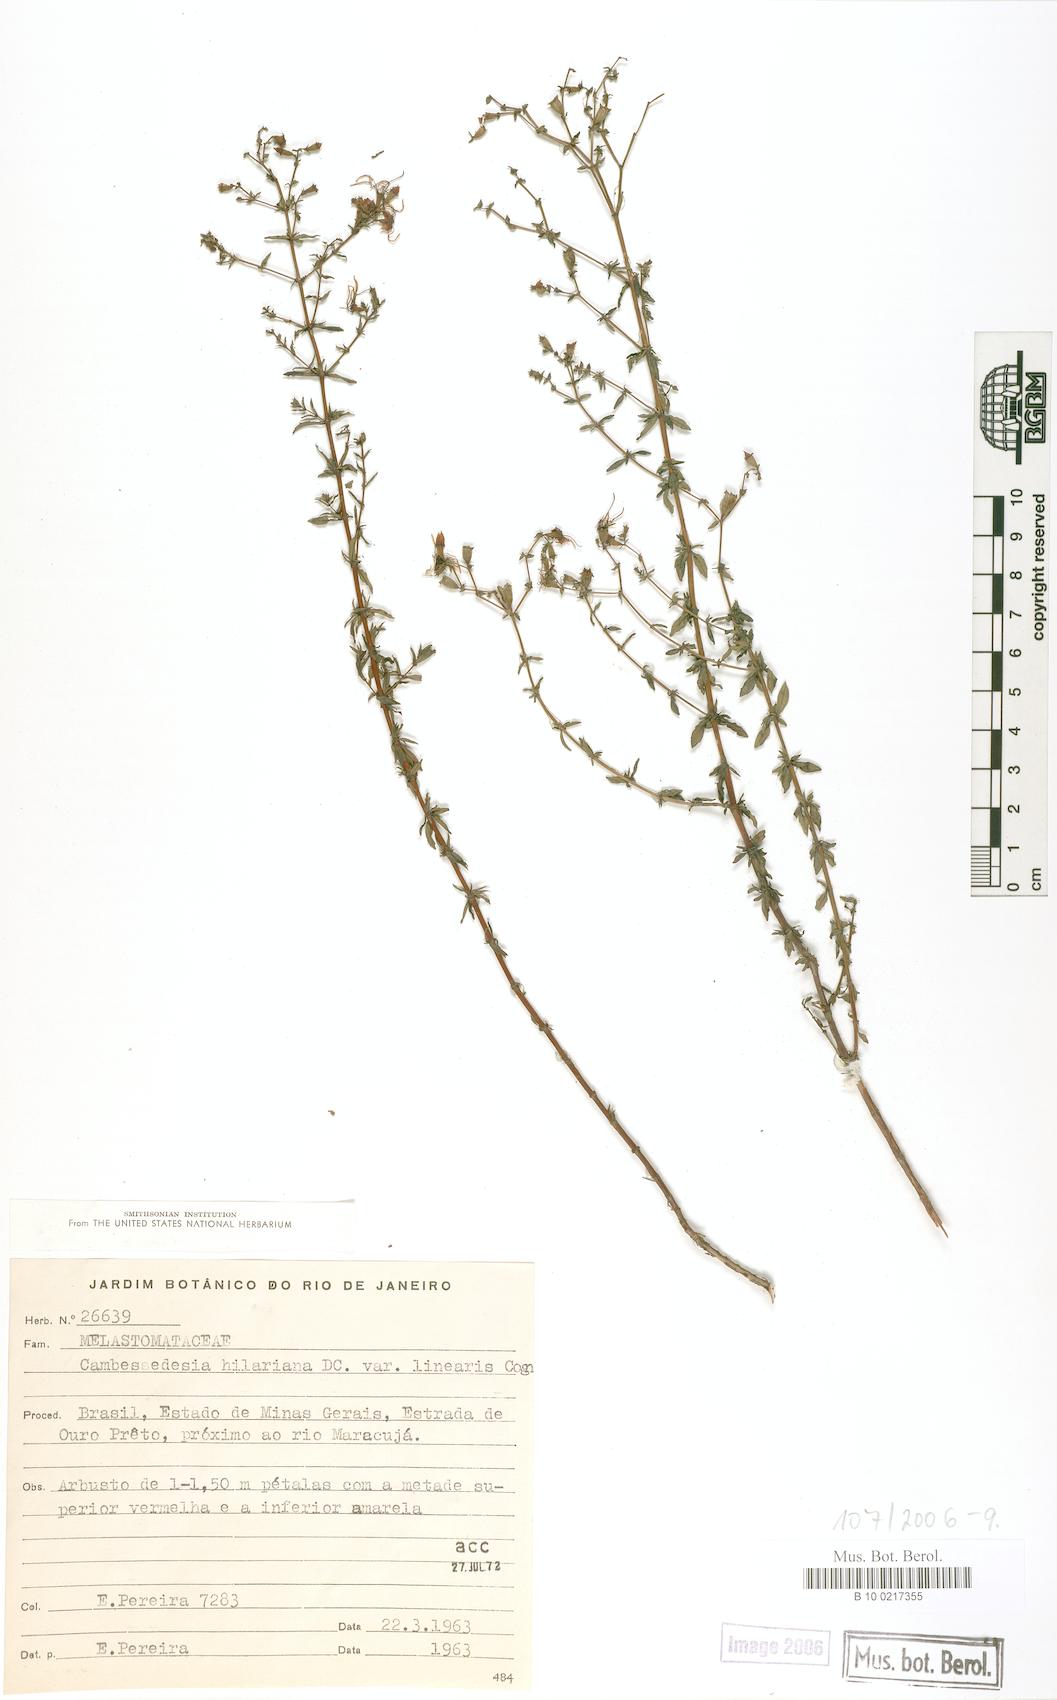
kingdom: Plantae
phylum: Tracheophyta
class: Magnoliopsida
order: Myrtales
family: Melastomataceae
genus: Cambessedesia
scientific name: Cambessedesia hilariana
